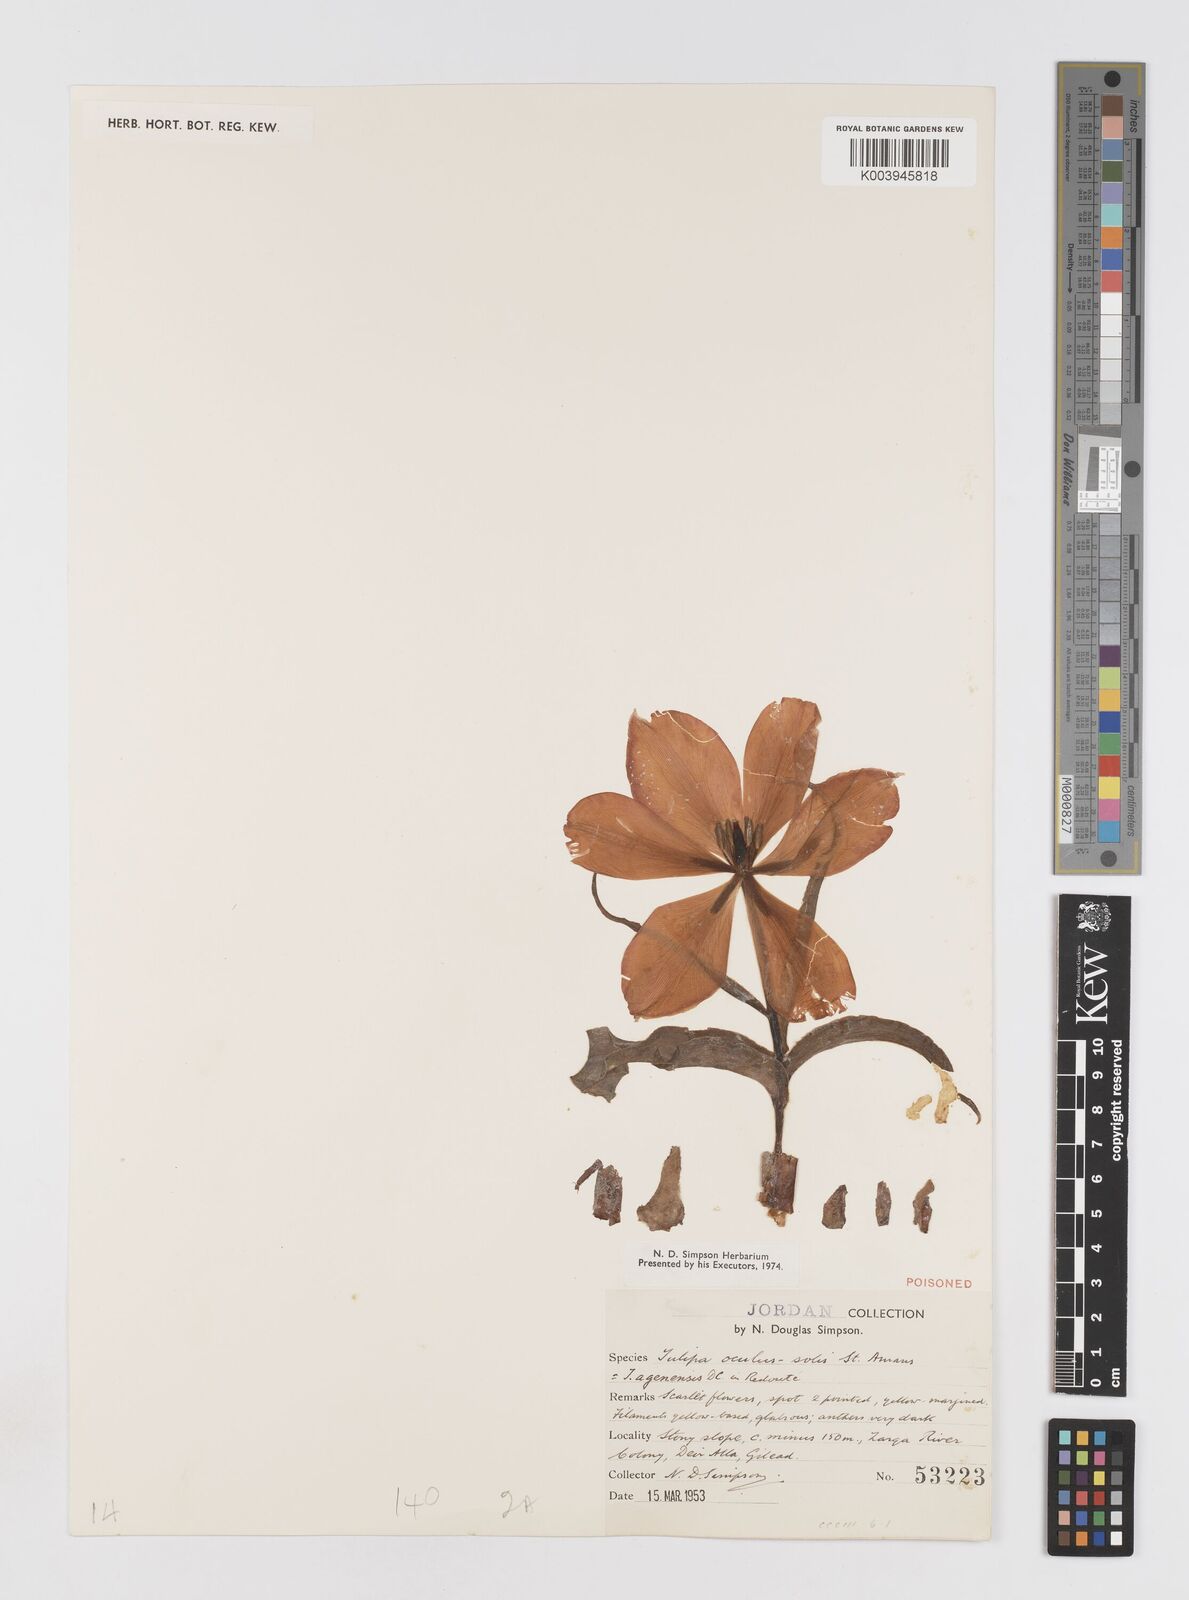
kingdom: Plantae
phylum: Tracheophyta
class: Liliopsida
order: Liliales
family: Liliaceae
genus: Tulipa
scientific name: Tulipa aleppensis
